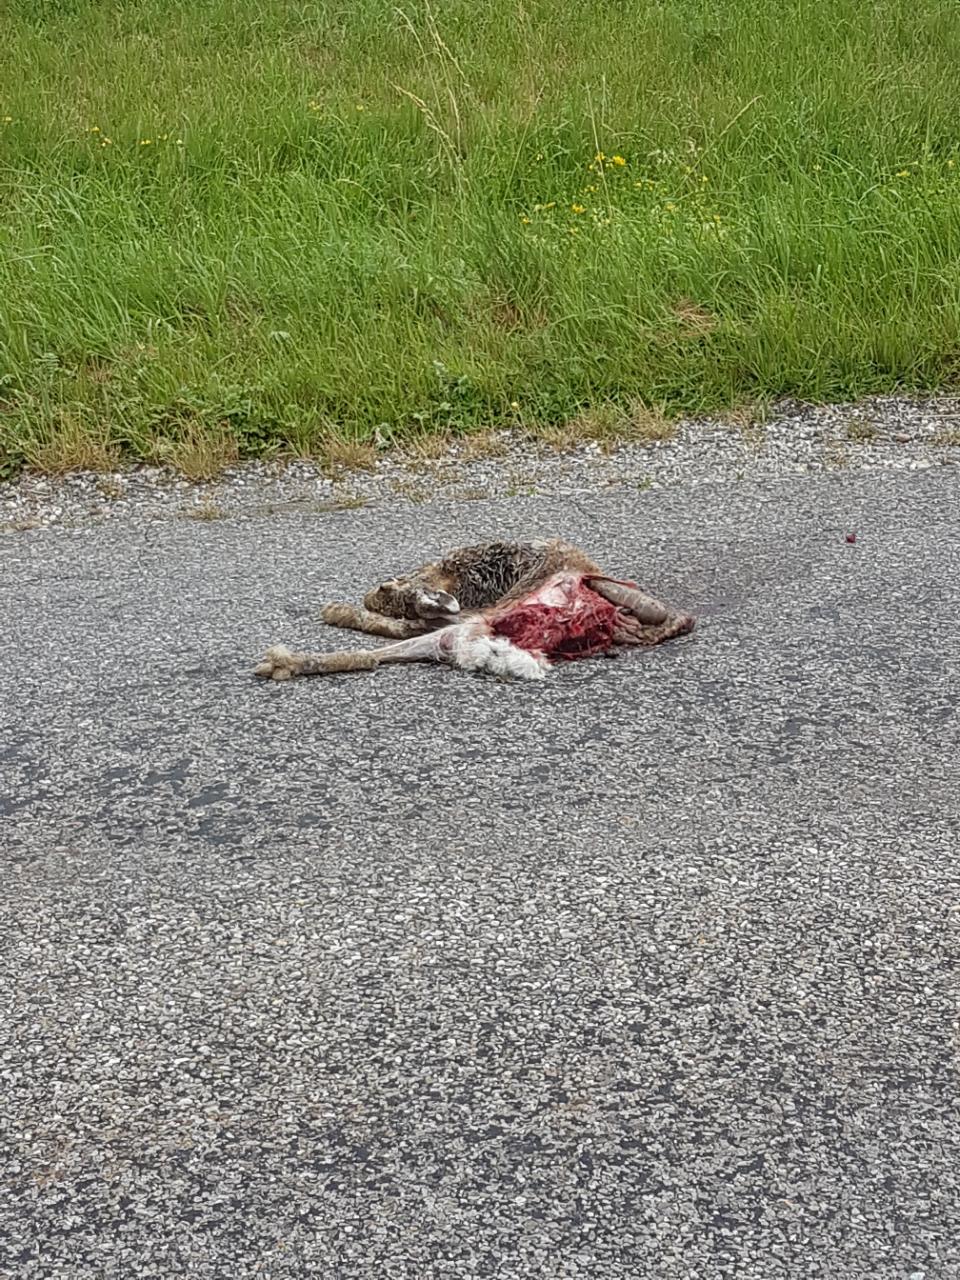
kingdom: Animalia
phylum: Chordata
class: Mammalia
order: Lagomorpha
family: Leporidae
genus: Lepus
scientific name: Lepus europaeus
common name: European hare
